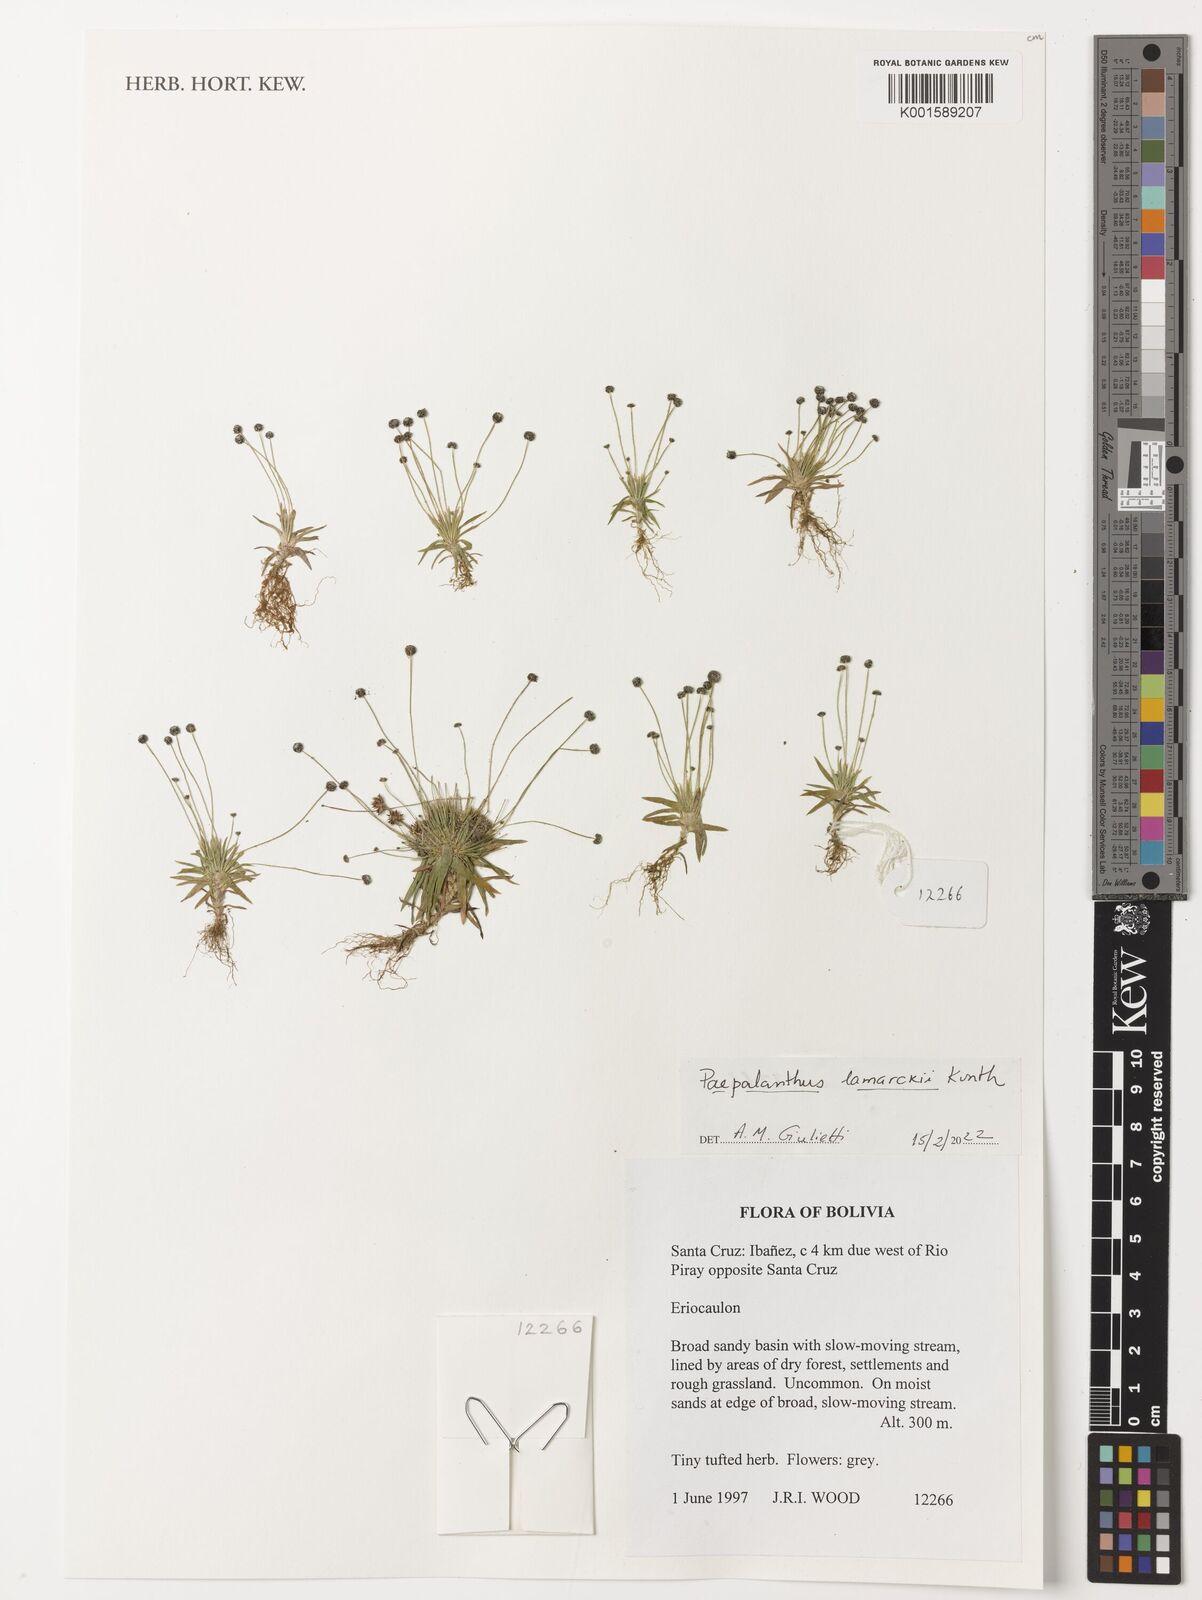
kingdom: Plantae
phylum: Tracheophyta
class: Liliopsida
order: Poales
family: Eriocaulaceae
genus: Paepalanthus
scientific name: Paepalanthus lamarckii
